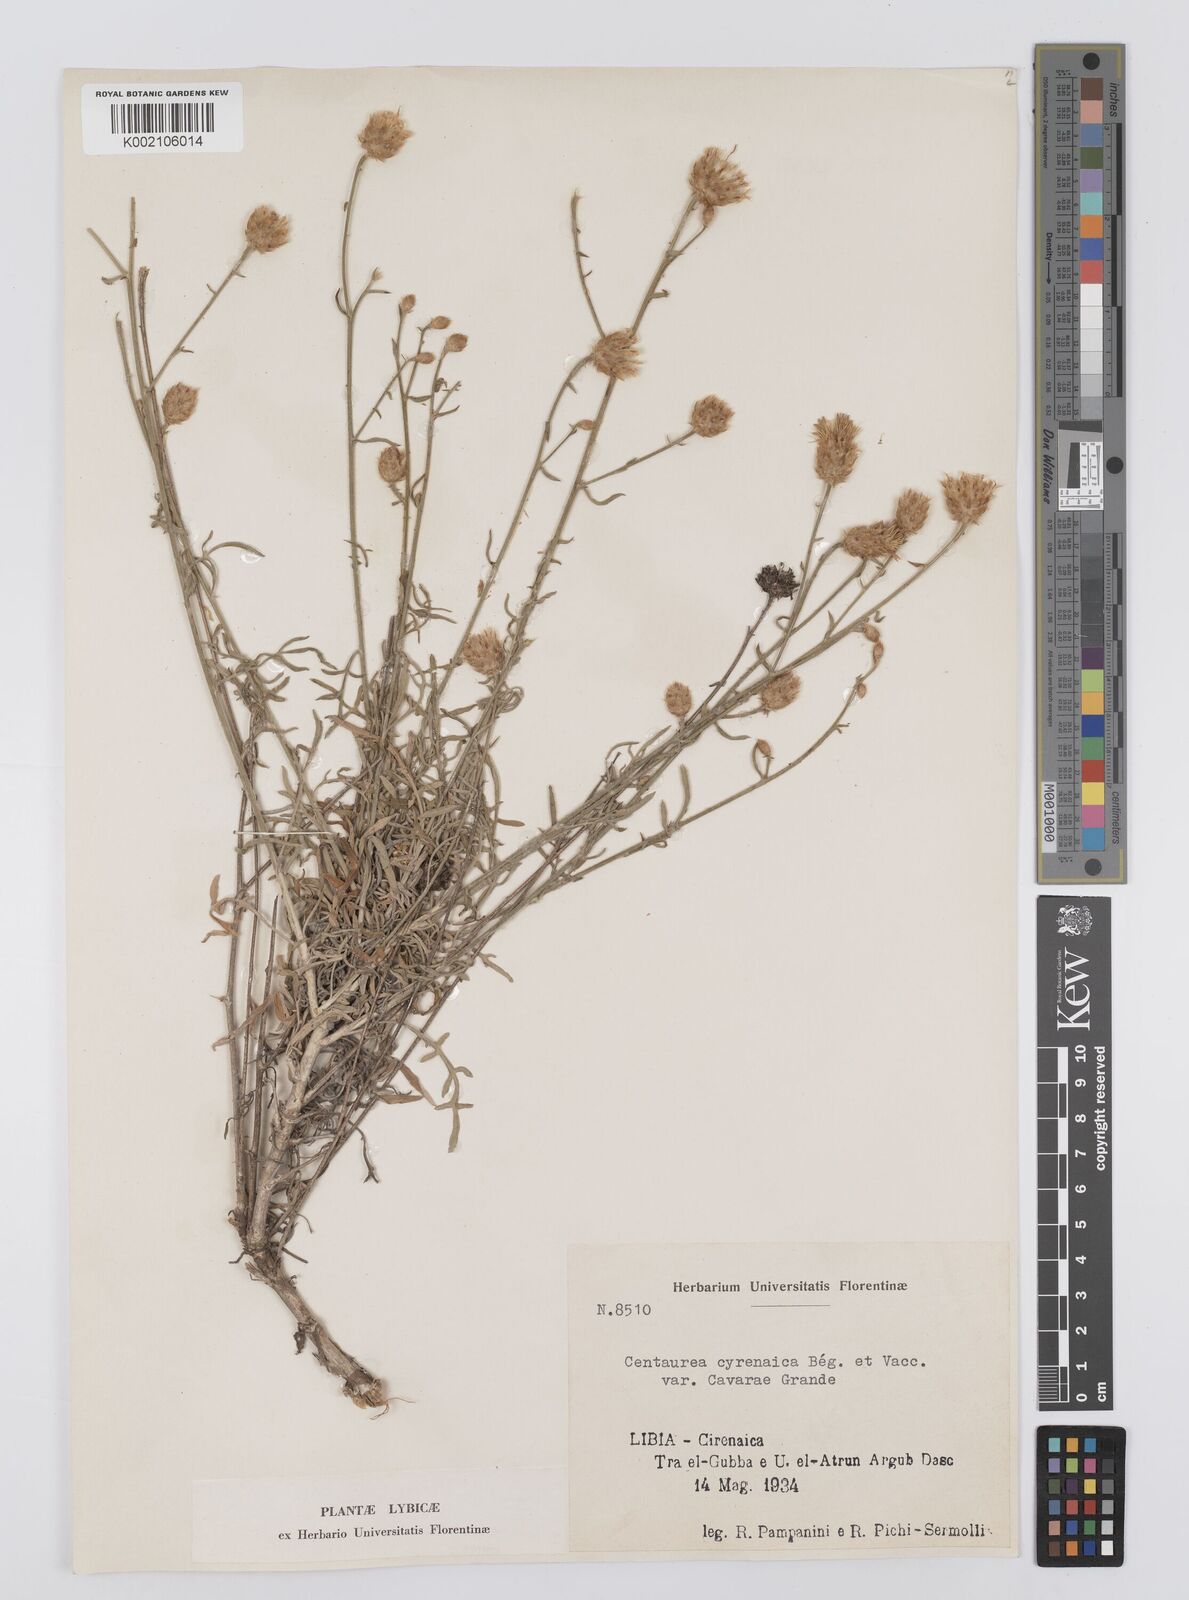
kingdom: Plantae
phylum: Tracheophyta
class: Magnoliopsida
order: Asterales
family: Asteraceae
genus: Centaurea
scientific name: Centaurea cyrenaica
